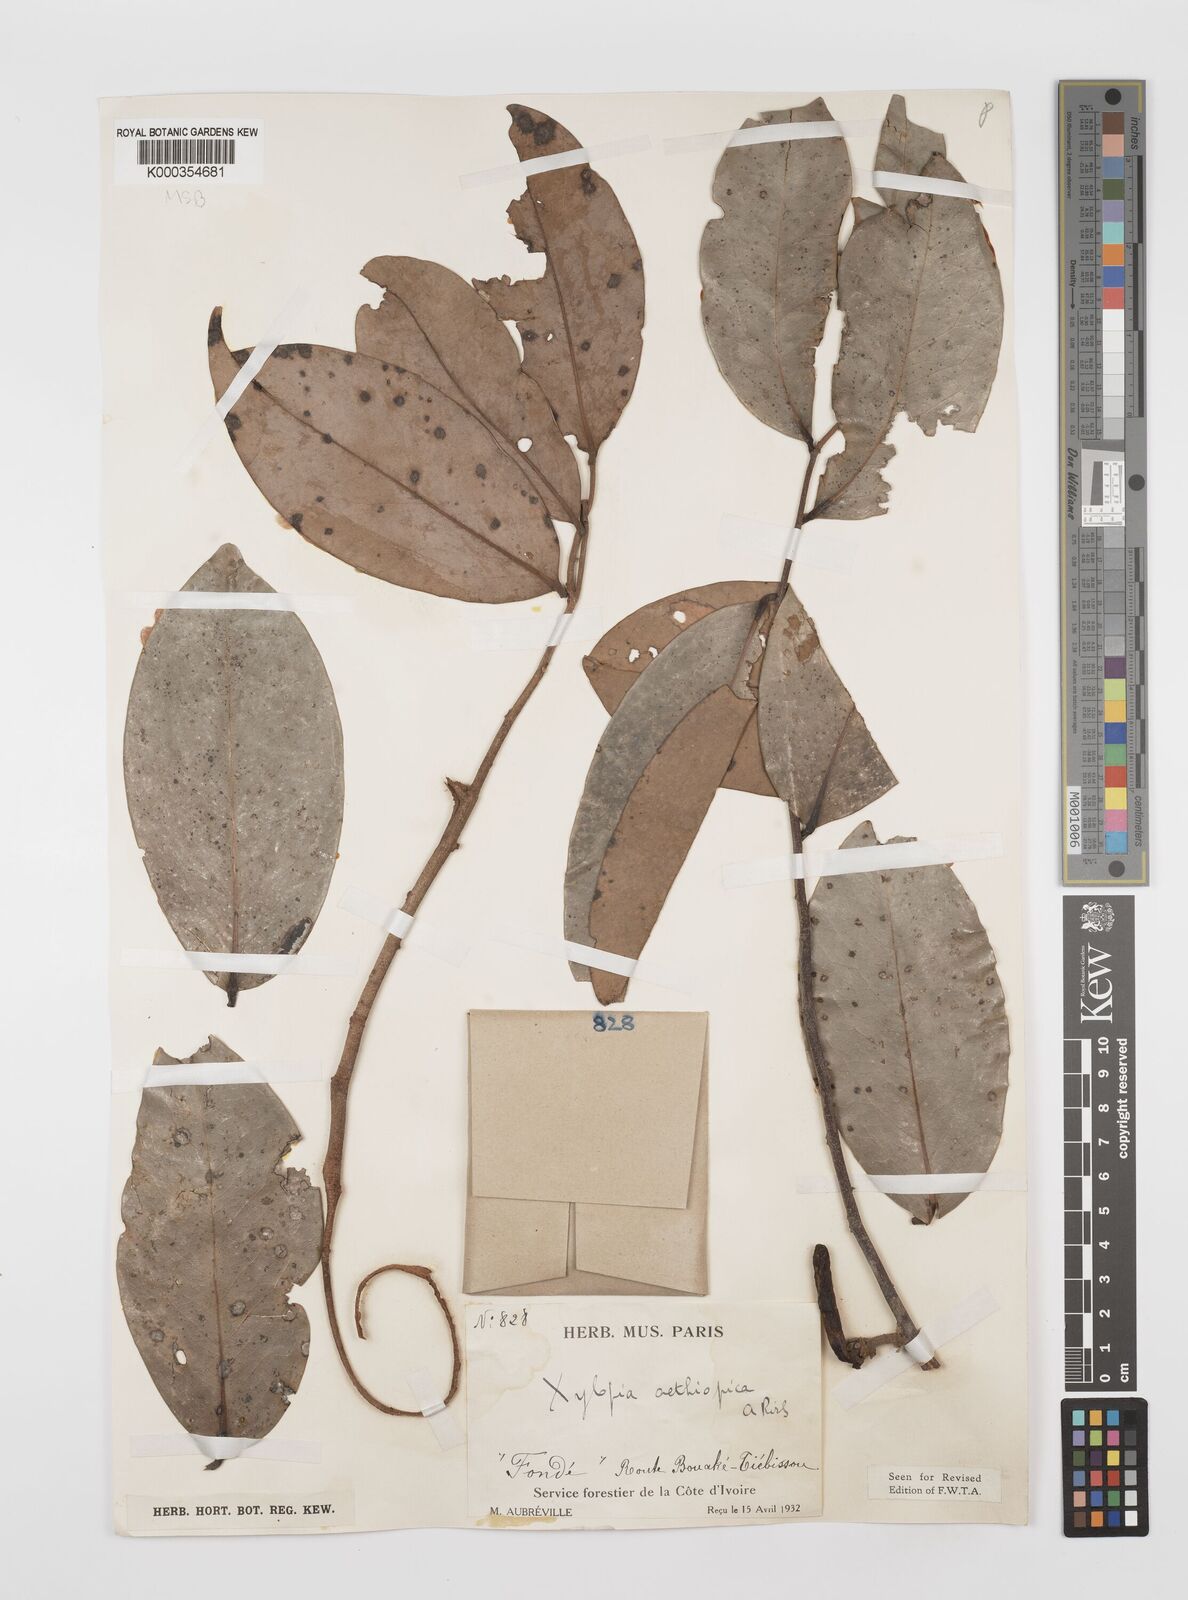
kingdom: Plantae
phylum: Tracheophyta
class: Magnoliopsida
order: Magnoliales
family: Annonaceae
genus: Xylopia
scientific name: Xylopia aethiopica
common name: Ethiopian-pepper
